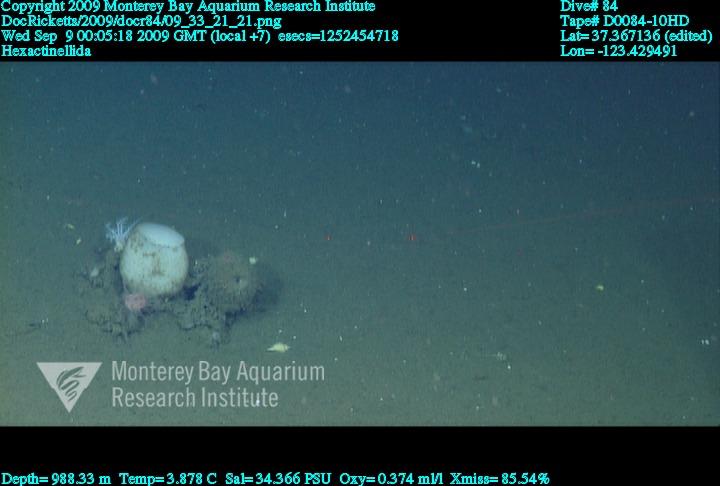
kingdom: Animalia
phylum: Porifera
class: Hexactinellida
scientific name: Hexactinellida
